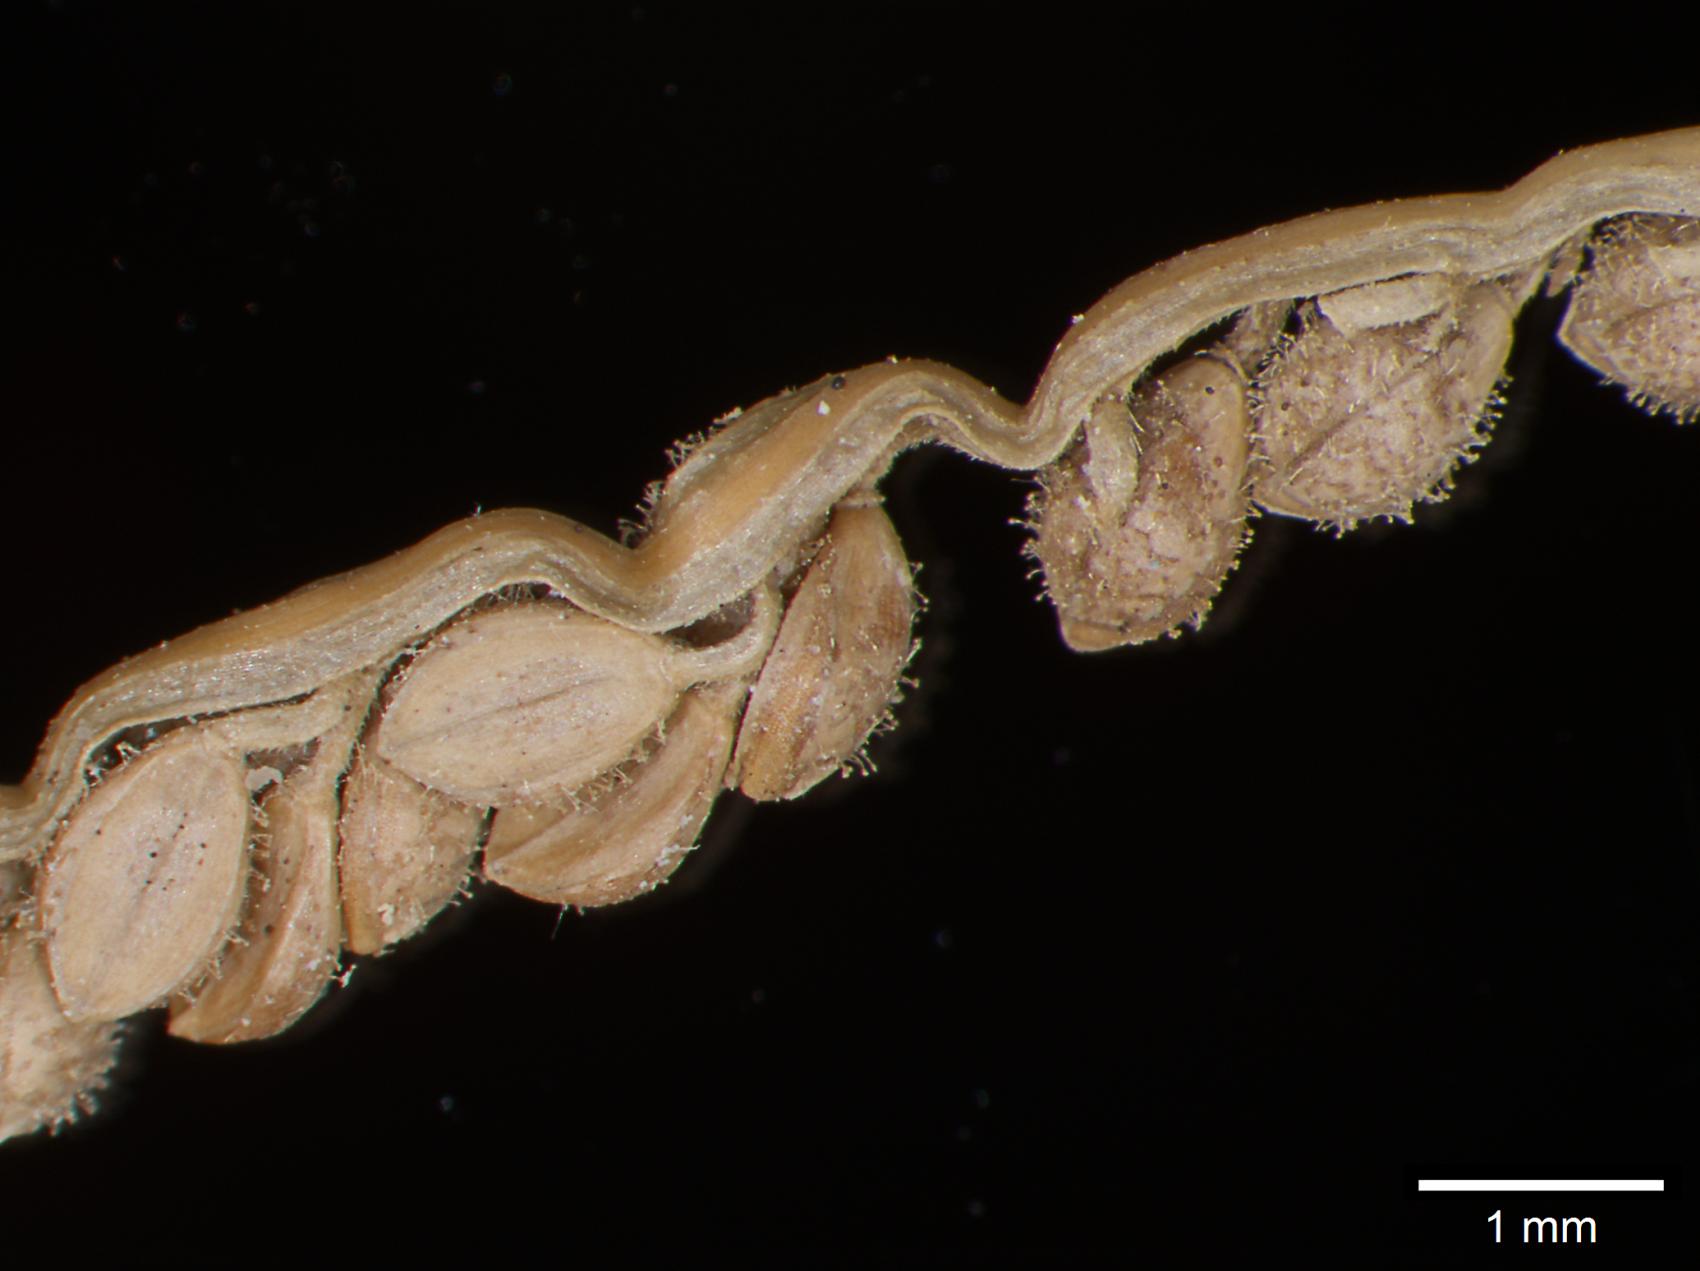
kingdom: Plantae
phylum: Tracheophyta
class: Liliopsida
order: Poales
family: Poaceae
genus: Paspalum
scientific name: Paspalum clavuliferum
